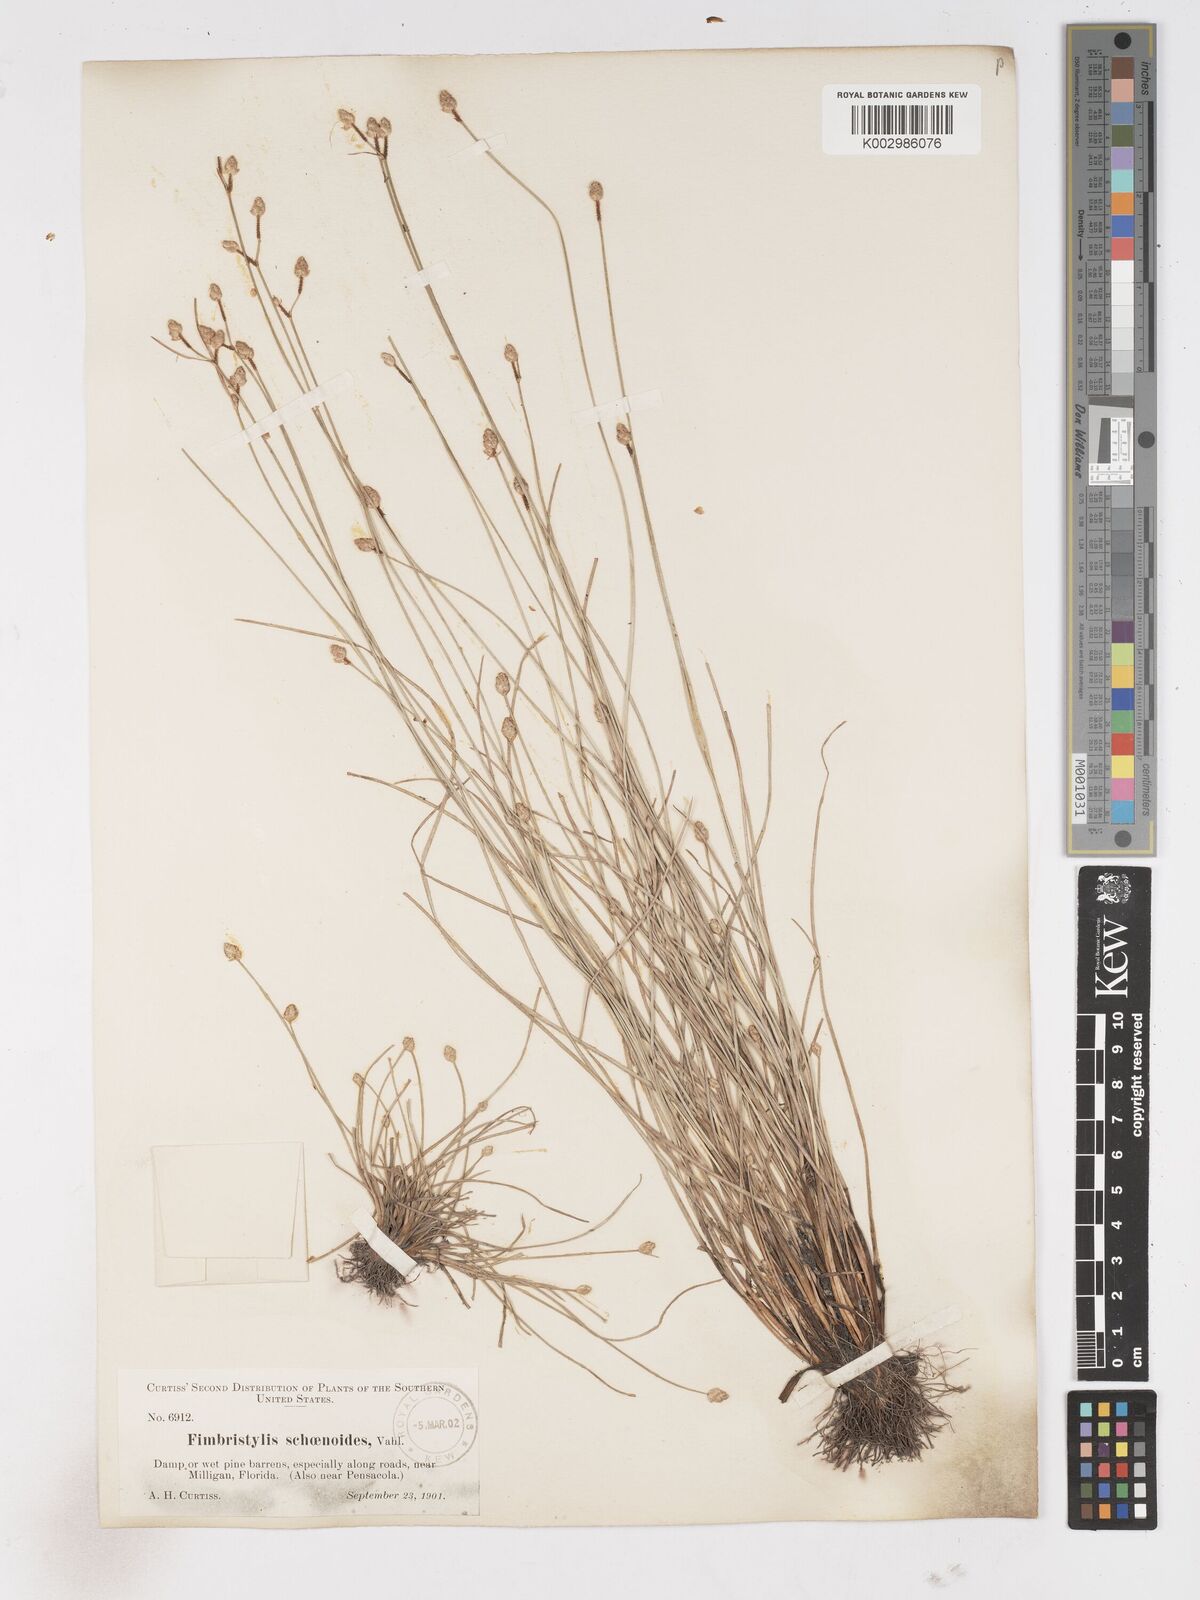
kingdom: Plantae
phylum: Tracheophyta
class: Liliopsida
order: Poales
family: Cyperaceae
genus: Fimbristylis
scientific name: Fimbristylis schoenoides
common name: Ditch fimbry
